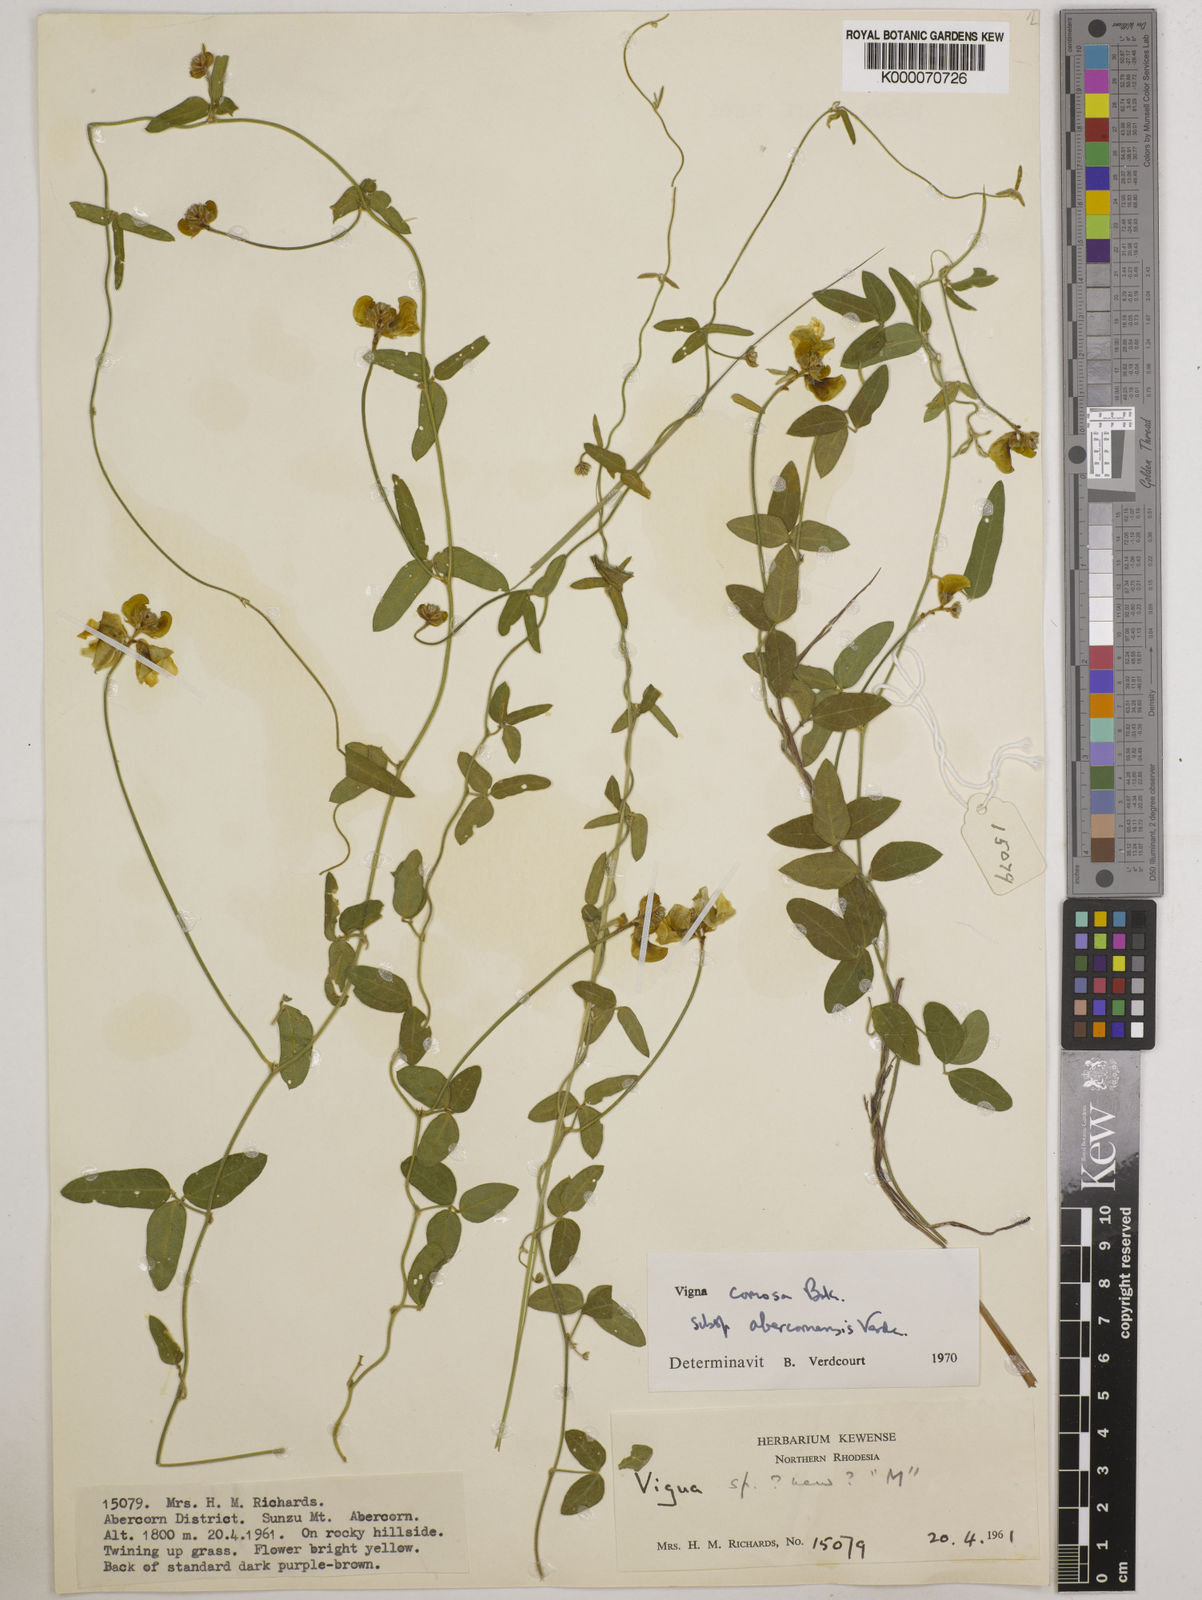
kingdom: Plantae
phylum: Tracheophyta
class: Magnoliopsida
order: Fabales
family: Fabaceae
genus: Vigna
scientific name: Vigna comosa
